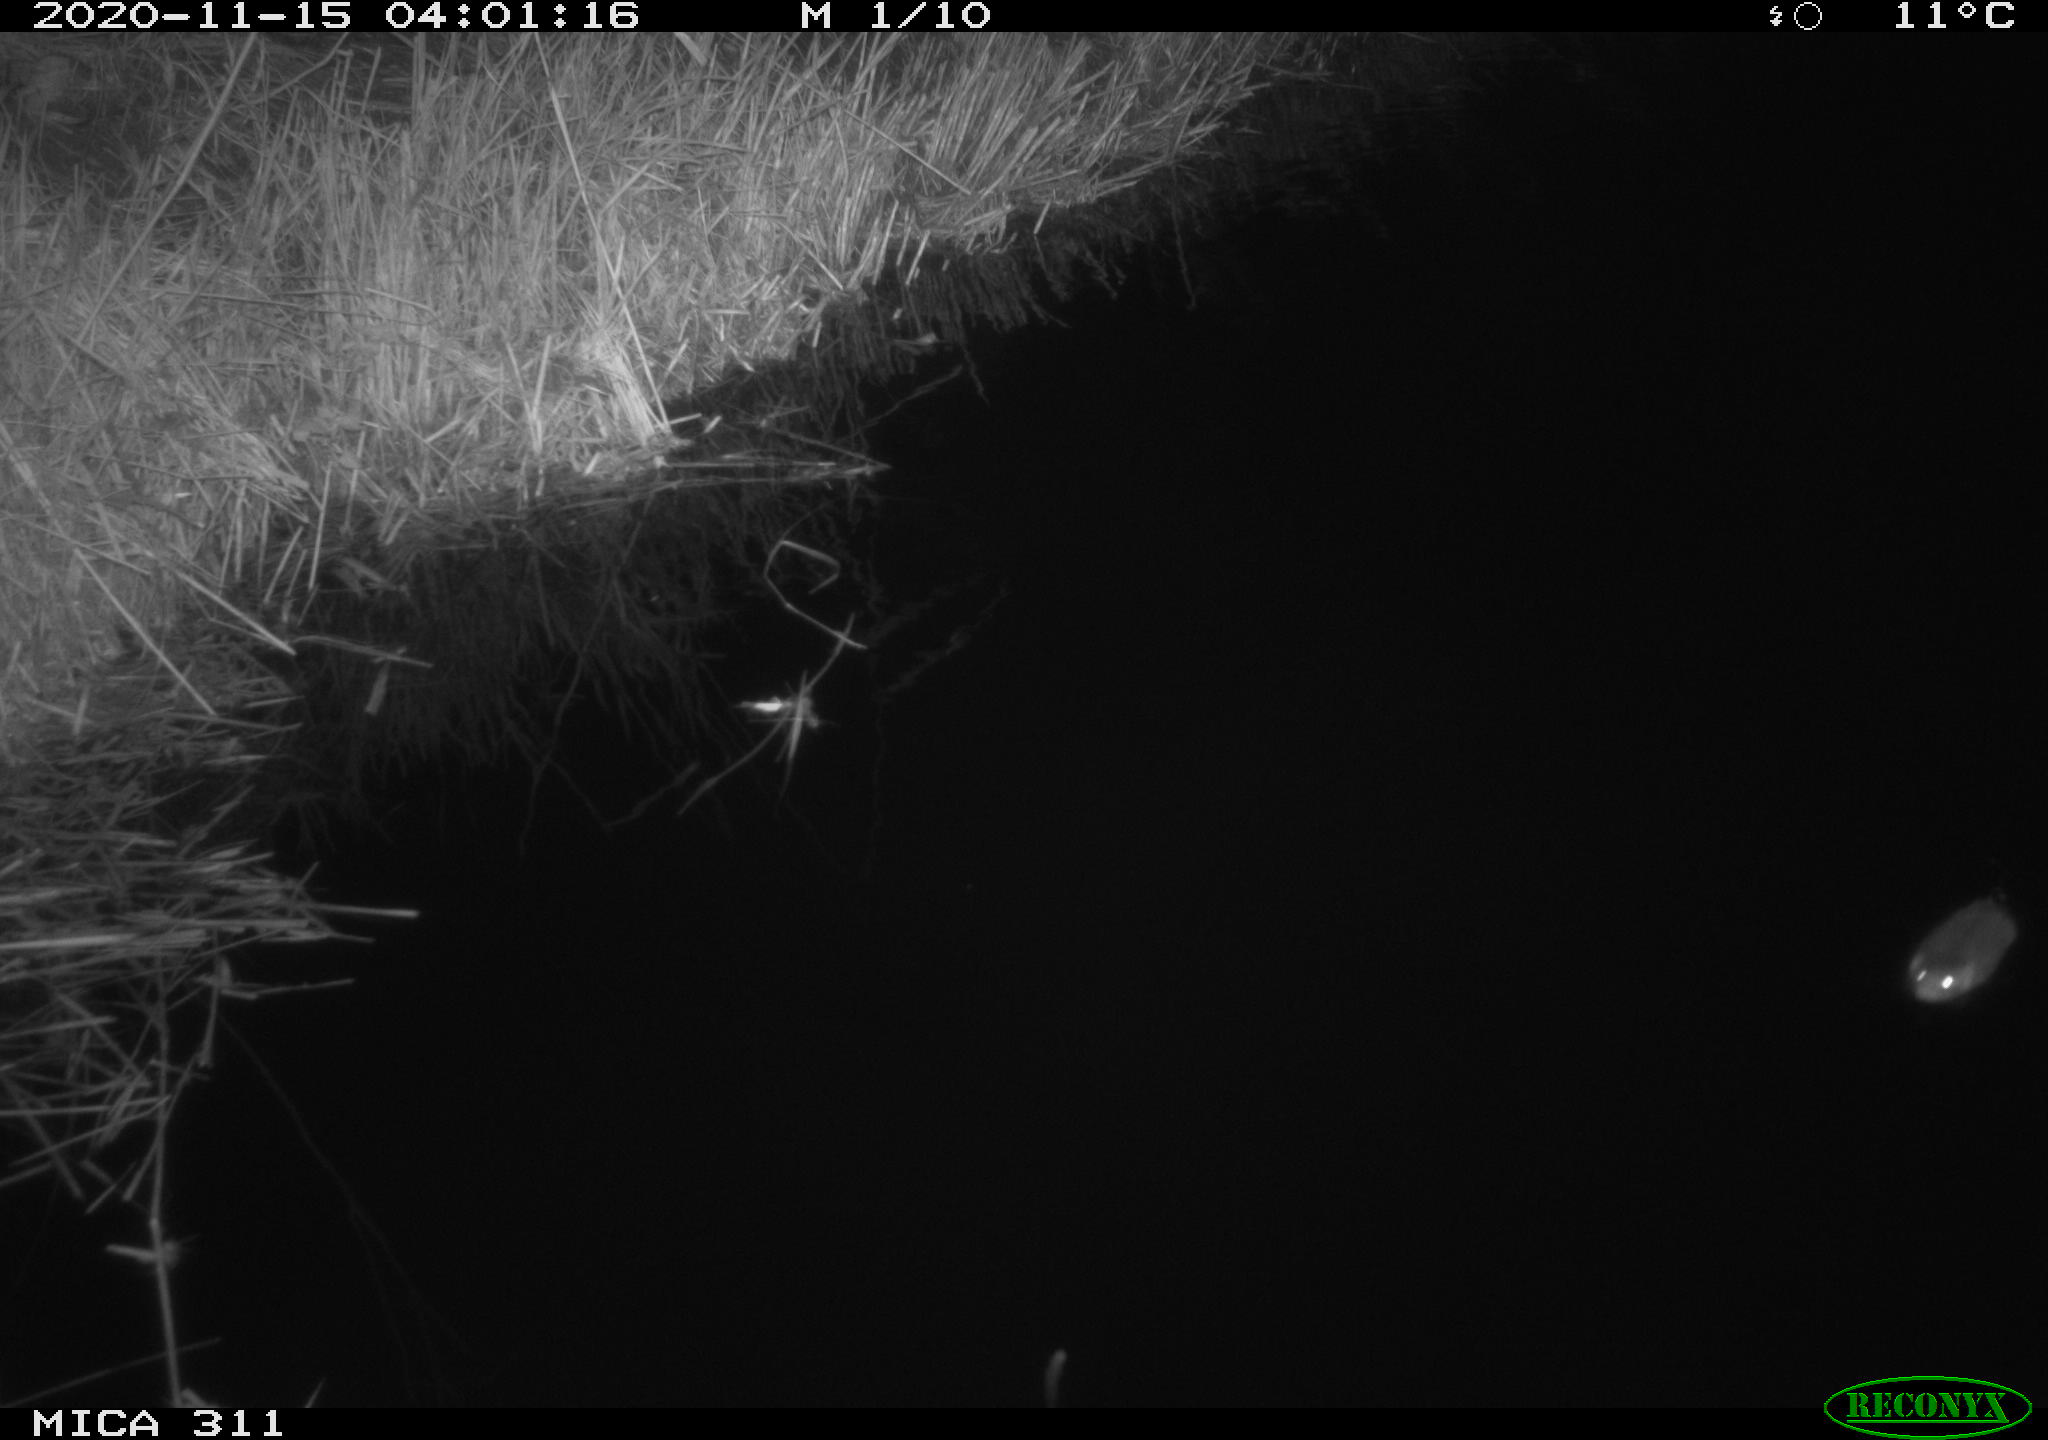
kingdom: Animalia
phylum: Chordata
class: Mammalia
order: Rodentia
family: Muridae
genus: Rattus
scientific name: Rattus norvegicus
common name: Brown rat
